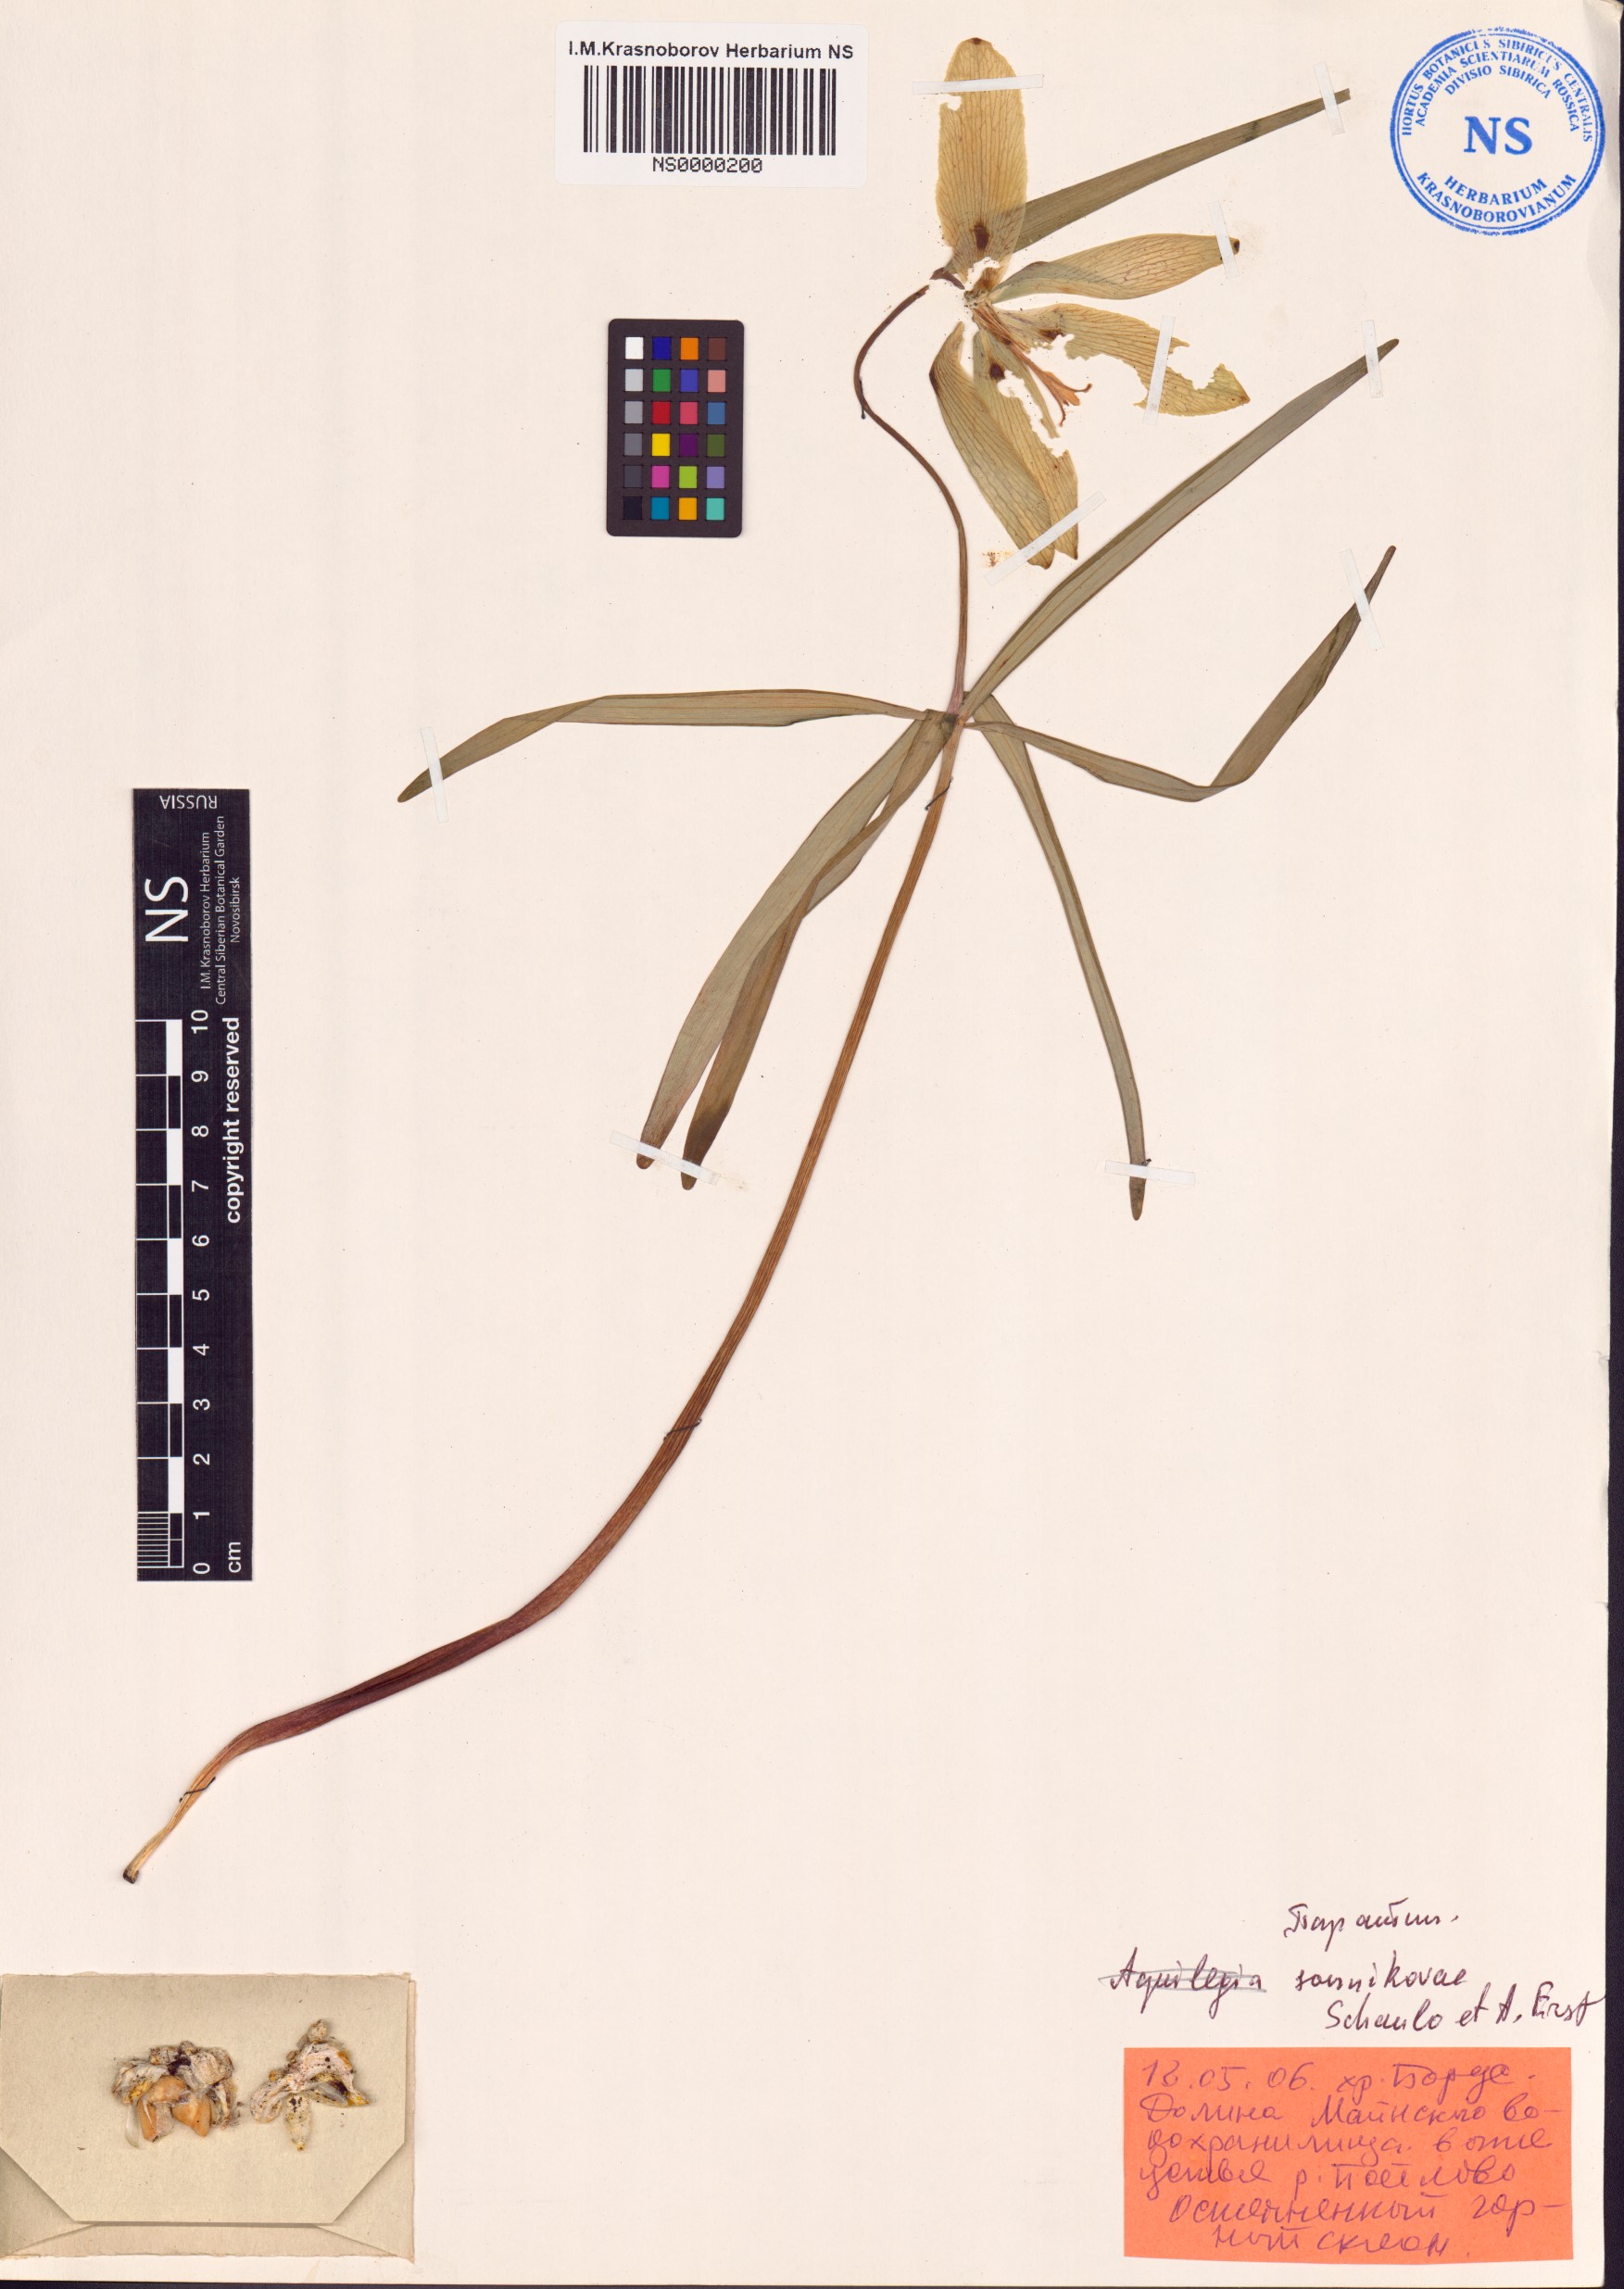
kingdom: Plantae
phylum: Tracheophyta
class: Liliopsida
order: Liliales
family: Liliaceae
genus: Fritillaria
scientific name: Fritillaria sonnikovae
